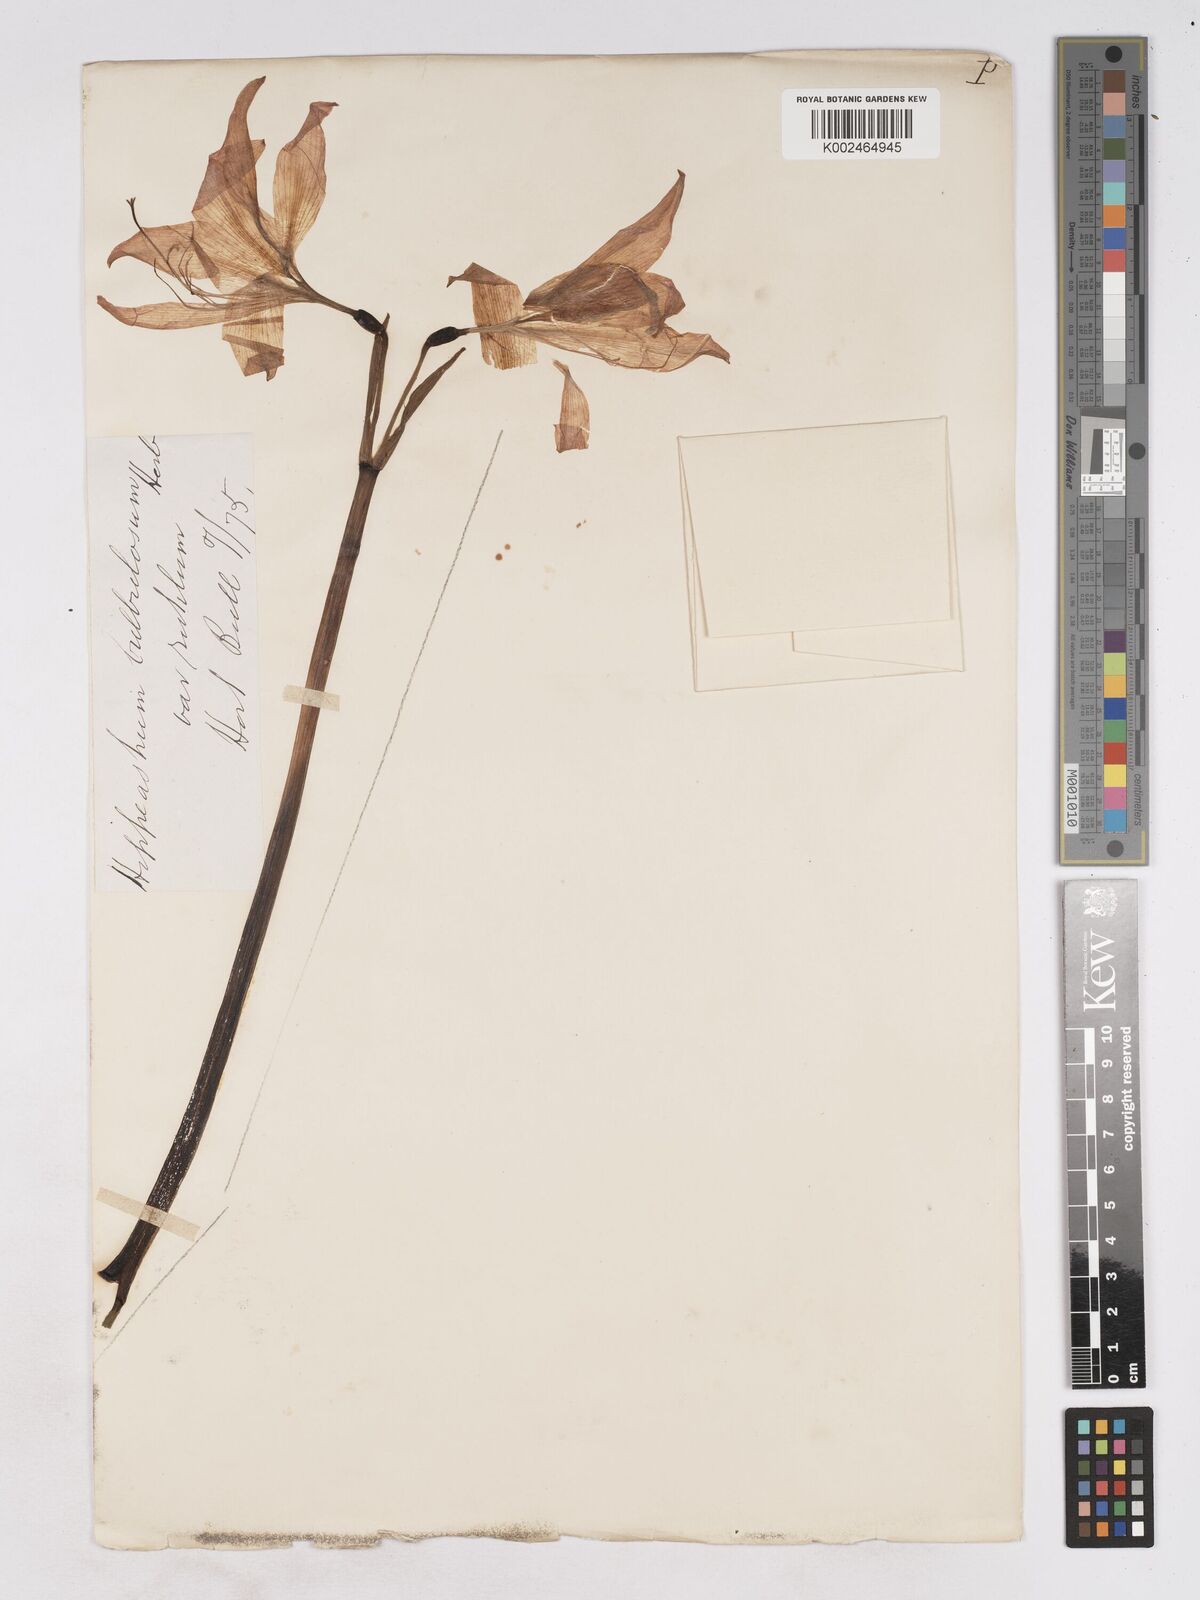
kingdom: Plantae
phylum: Tracheophyta
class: Liliopsida
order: Asparagales
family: Amaryllidaceae
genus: Hippeastrum
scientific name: Hippeastrum striatum
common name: Striped barbados lily
